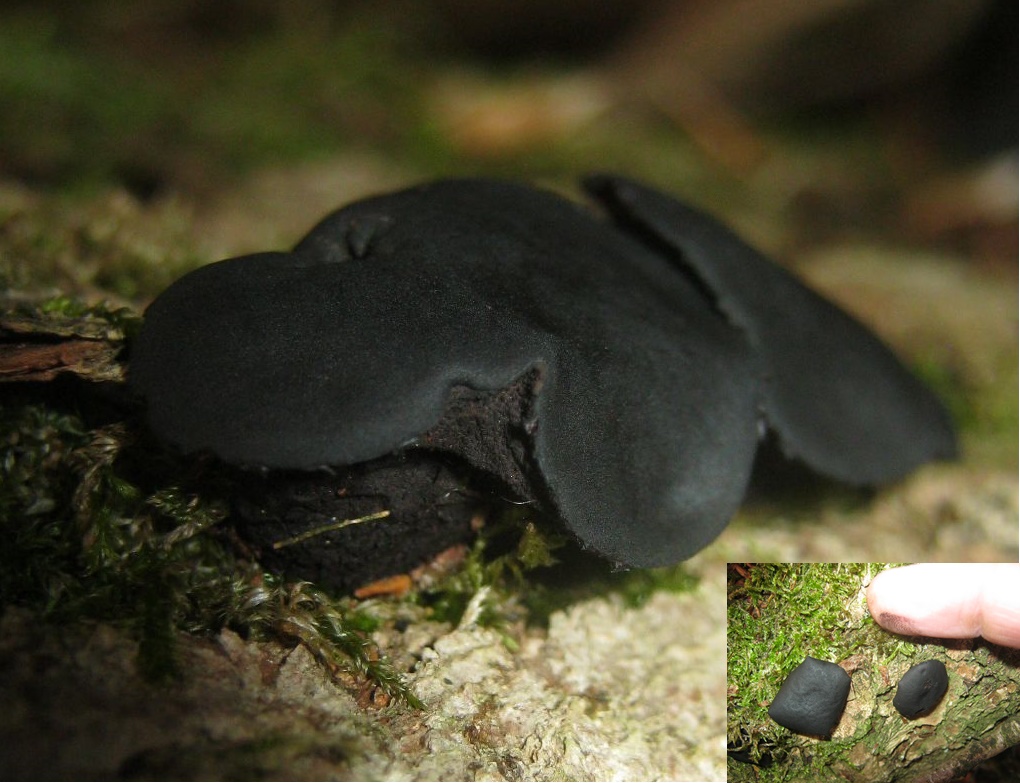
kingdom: Fungi
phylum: Ascomycota
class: Leotiomycetes
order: Phacidiales
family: Phacidiaceae
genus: Bulgaria
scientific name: Bulgaria inquinans
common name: afsmittende topsvamp
